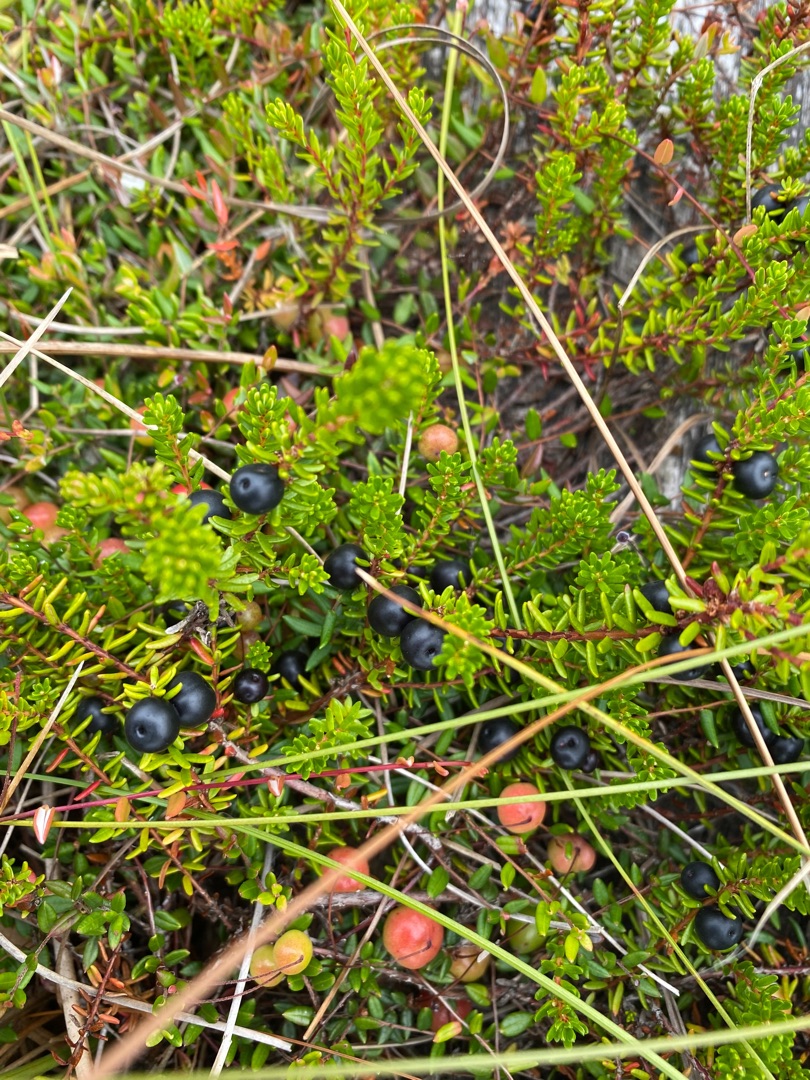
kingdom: Plantae
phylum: Tracheophyta
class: Magnoliopsida
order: Ericales
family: Ericaceae
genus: Empetrum
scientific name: Empetrum nigrum
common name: Revling
